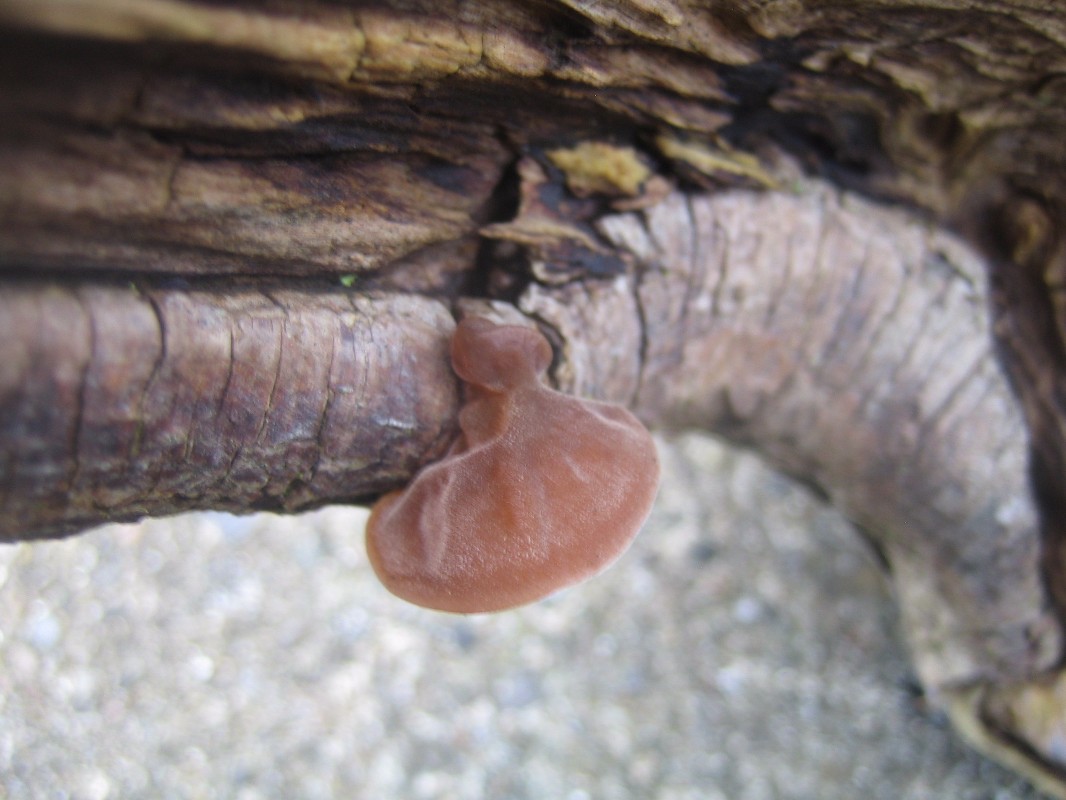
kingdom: Fungi
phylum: Basidiomycota
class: Agaricomycetes
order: Auriculariales
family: Auriculariaceae
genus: Auricularia
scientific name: Auricularia auricula-judae
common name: almindelig judasøre
